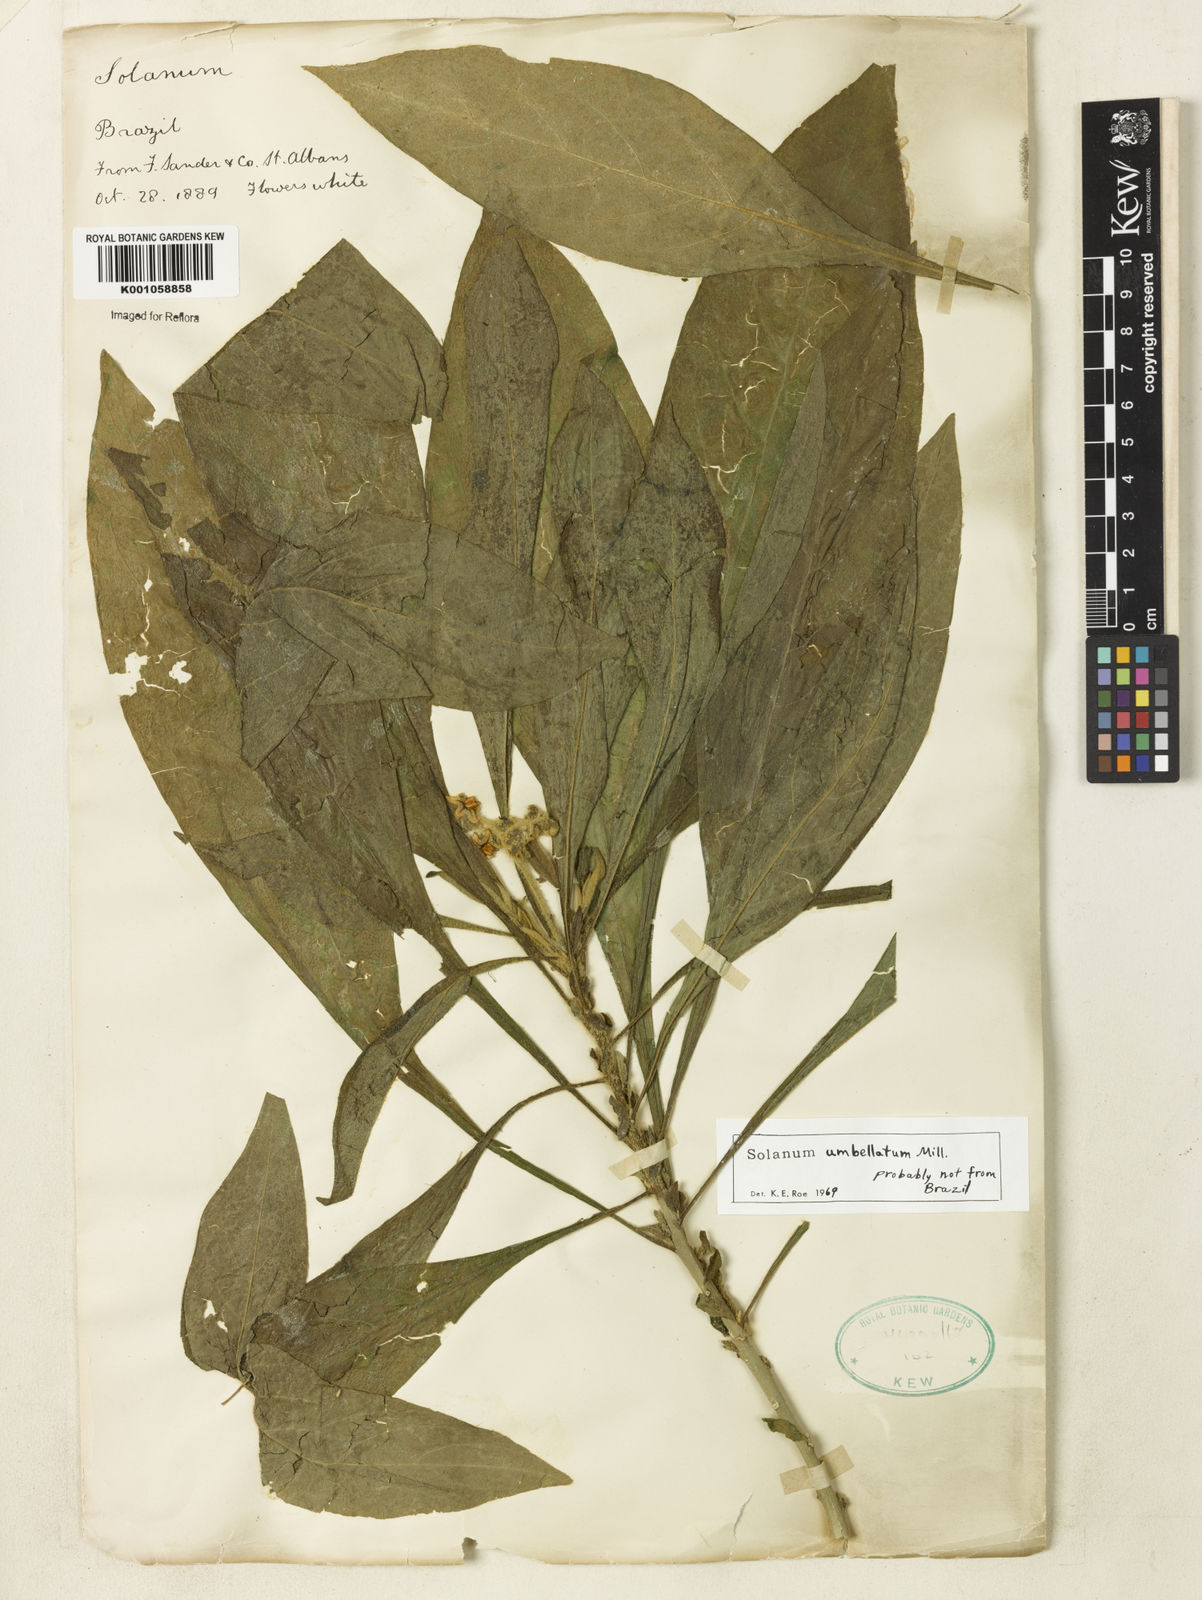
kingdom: Plantae
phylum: Tracheophyta
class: Magnoliopsida
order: Solanales
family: Solanaceae
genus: Solanum
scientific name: Solanum umbellatum
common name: Nightshade
